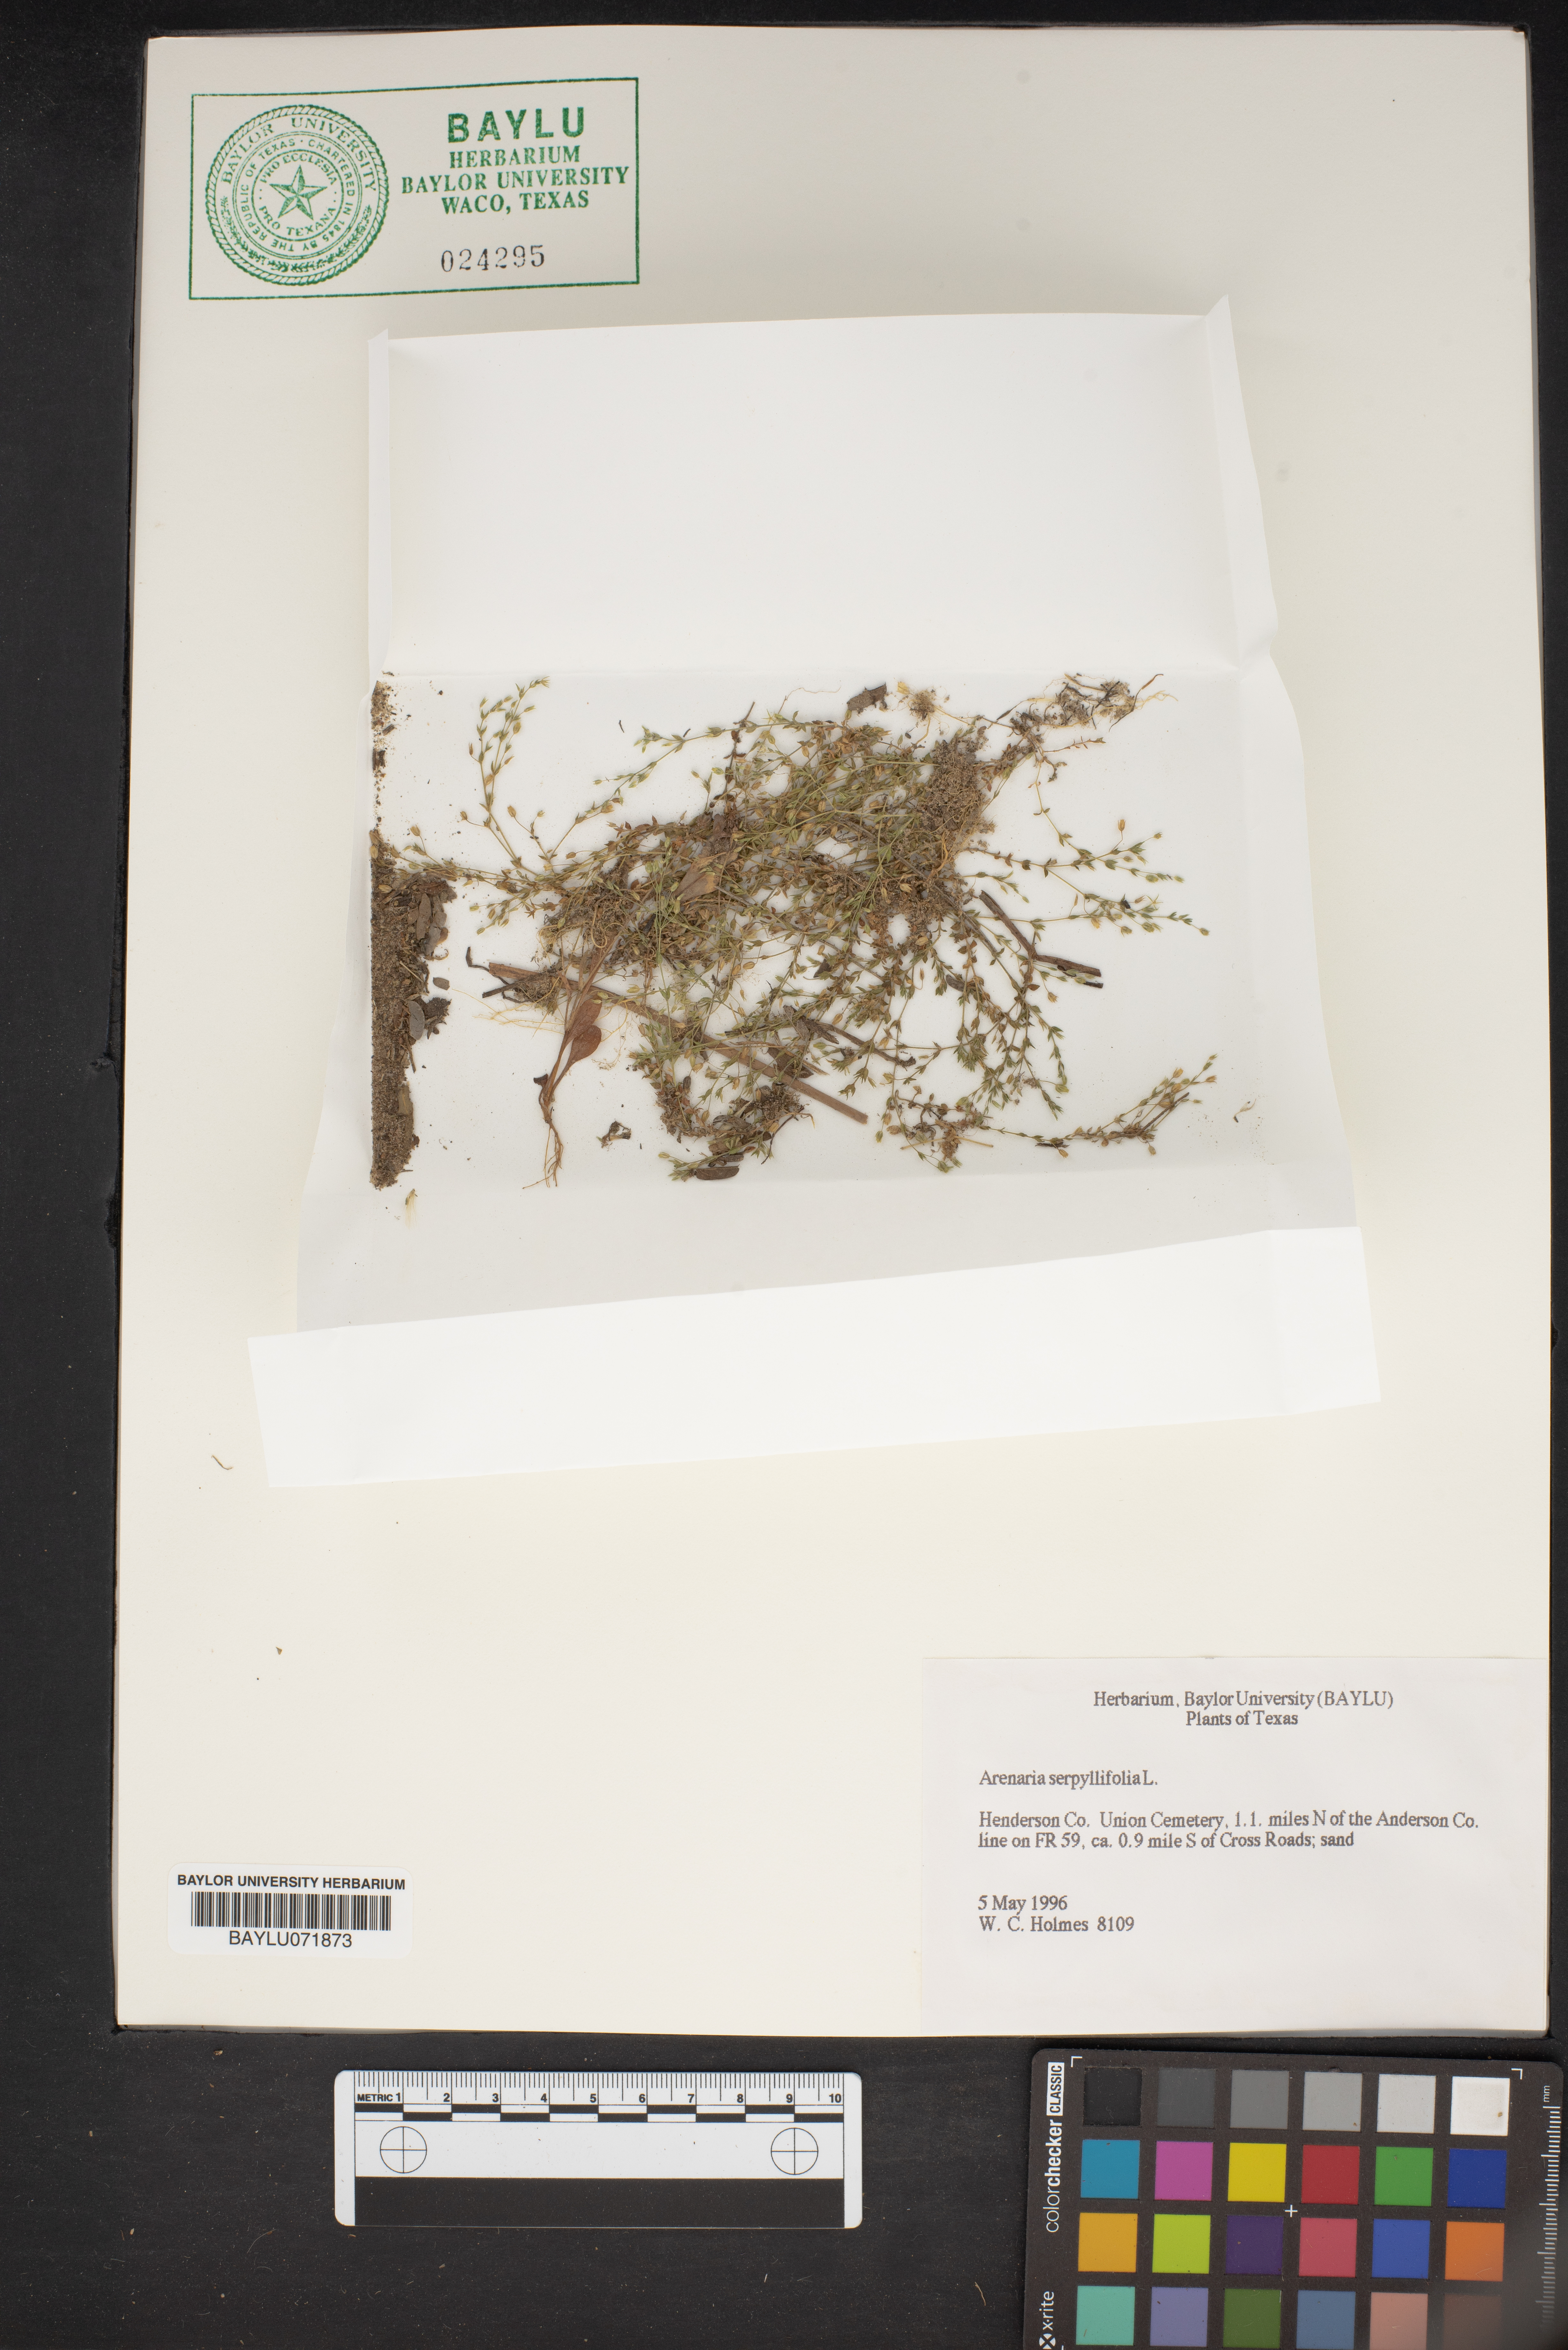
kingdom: Plantae
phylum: Tracheophyta
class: Magnoliopsida
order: Caryophyllales
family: Caryophyllaceae
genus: Arenaria
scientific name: Arenaria serpyllifolia
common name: Thyme-leaved sandwort
